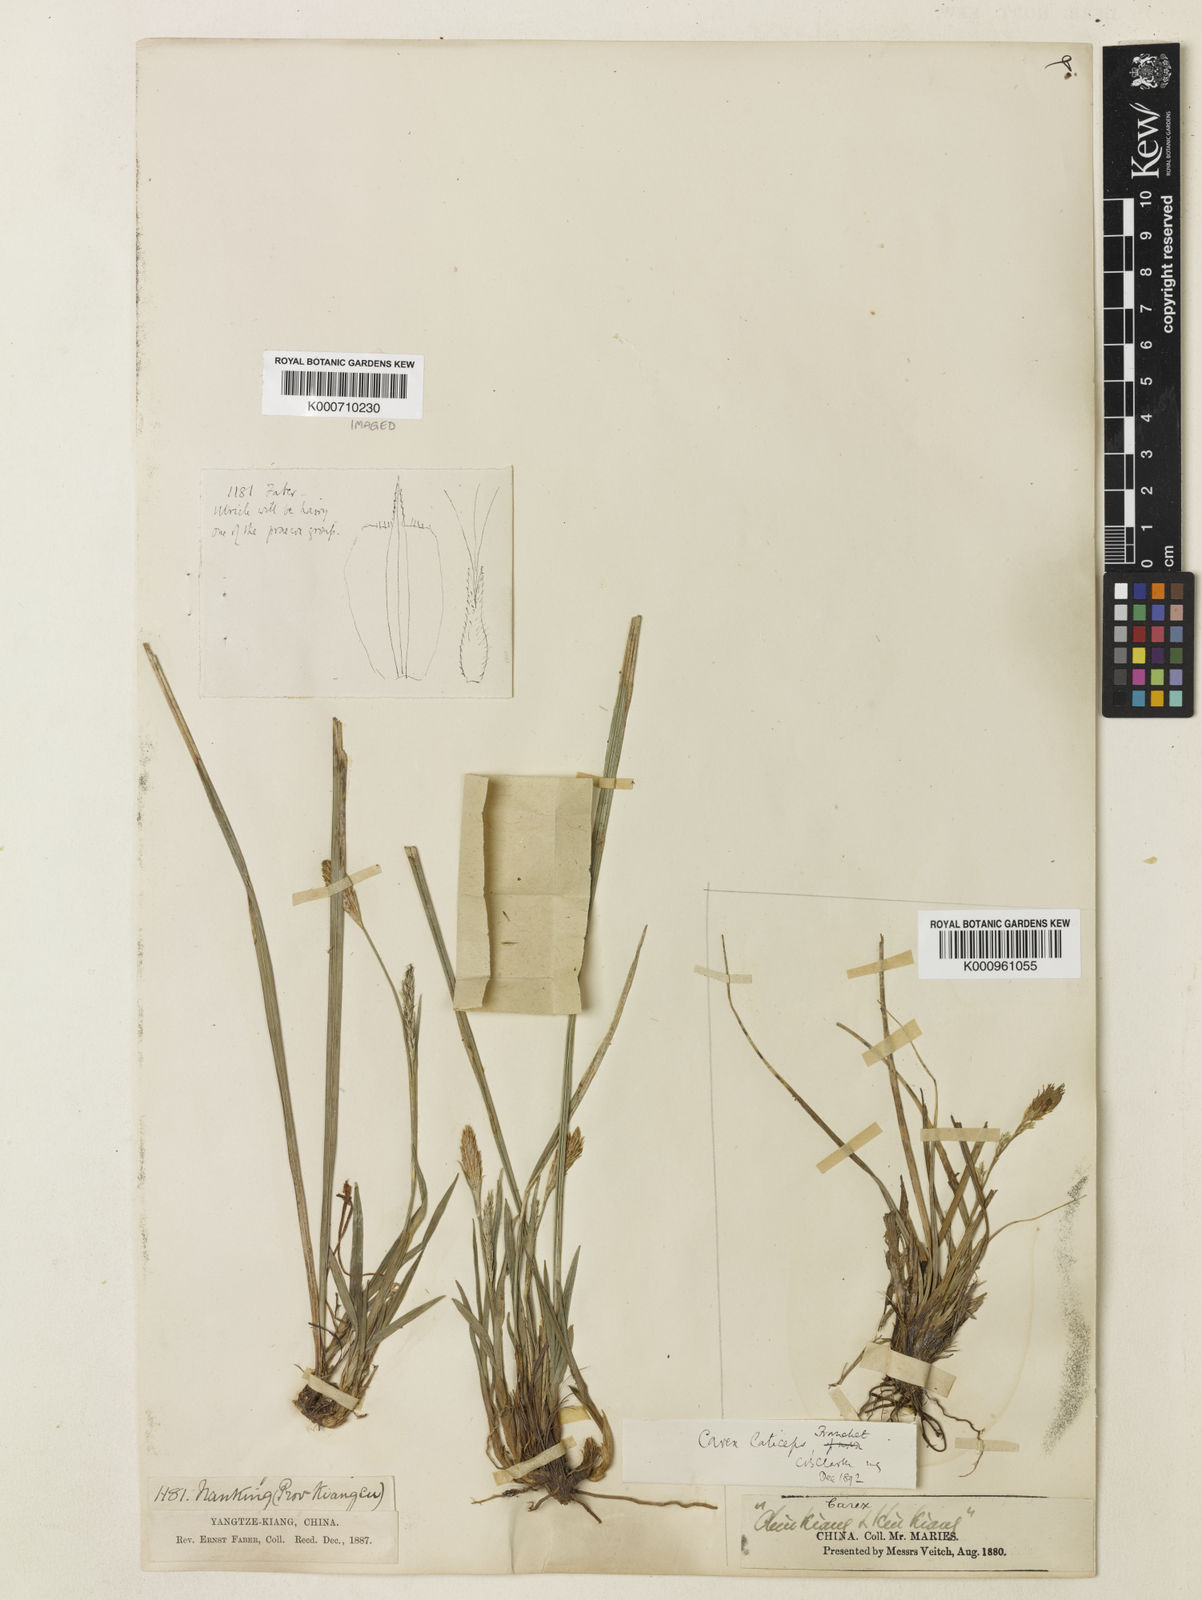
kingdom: Plantae
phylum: Tracheophyta
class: Liliopsida
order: Poales
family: Cyperaceae
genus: Carex
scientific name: Carex sampsonii
